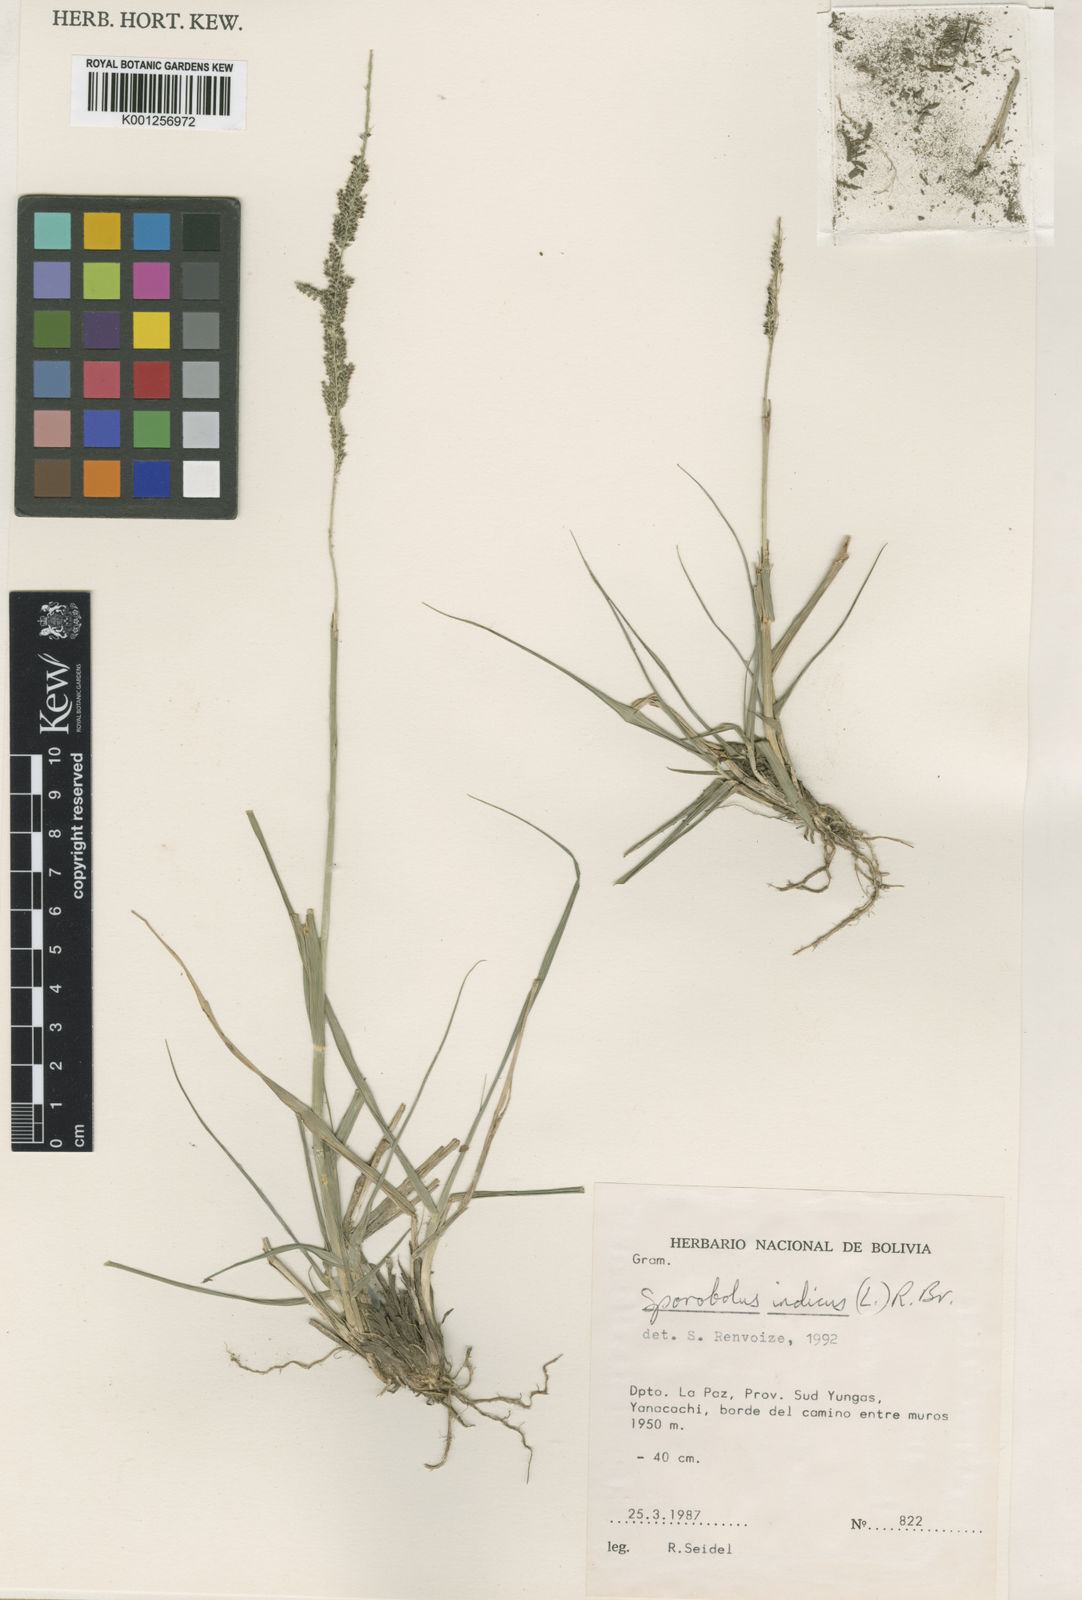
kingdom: Plantae
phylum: Tracheophyta
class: Liliopsida
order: Poales
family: Poaceae
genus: Sporobolus
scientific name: Sporobolus indicus
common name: Smut grass
